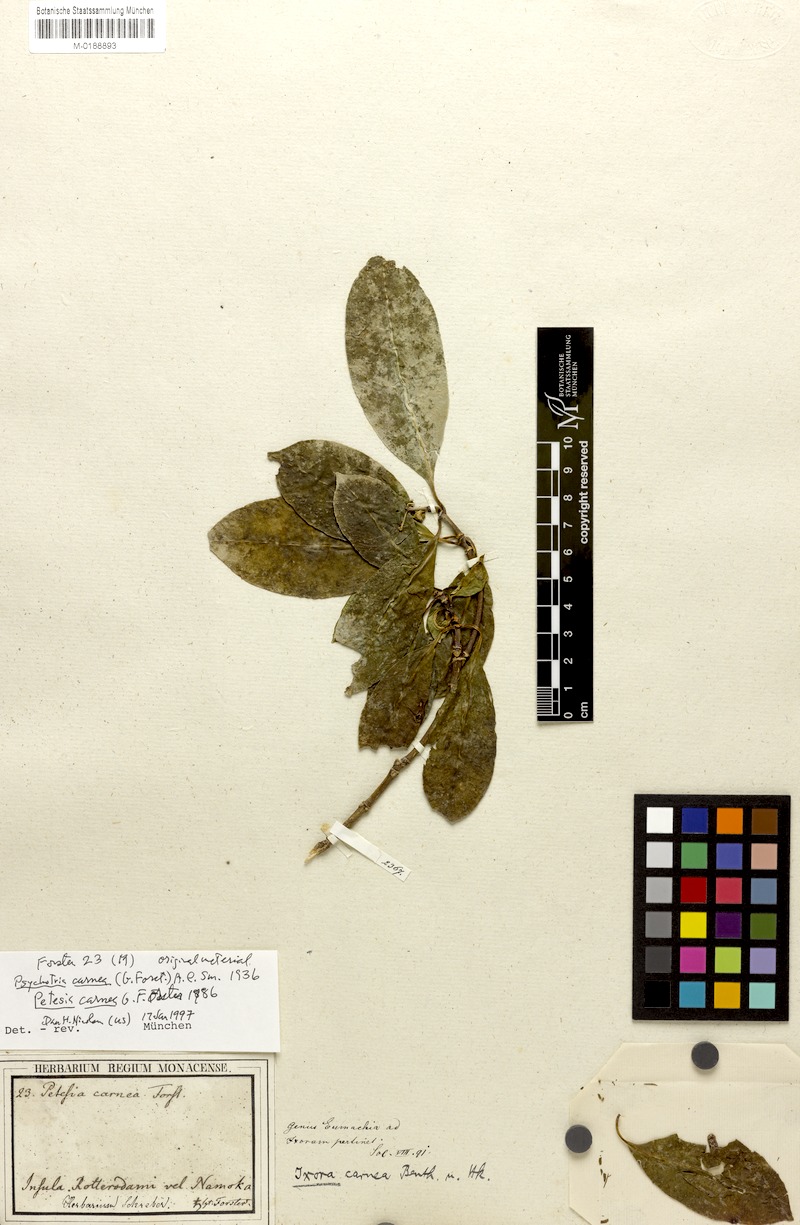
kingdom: Plantae
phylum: Tracheophyta
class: Magnoliopsida
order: Gentianales
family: Rubiaceae
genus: Eumachia
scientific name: Eumachia carnea
